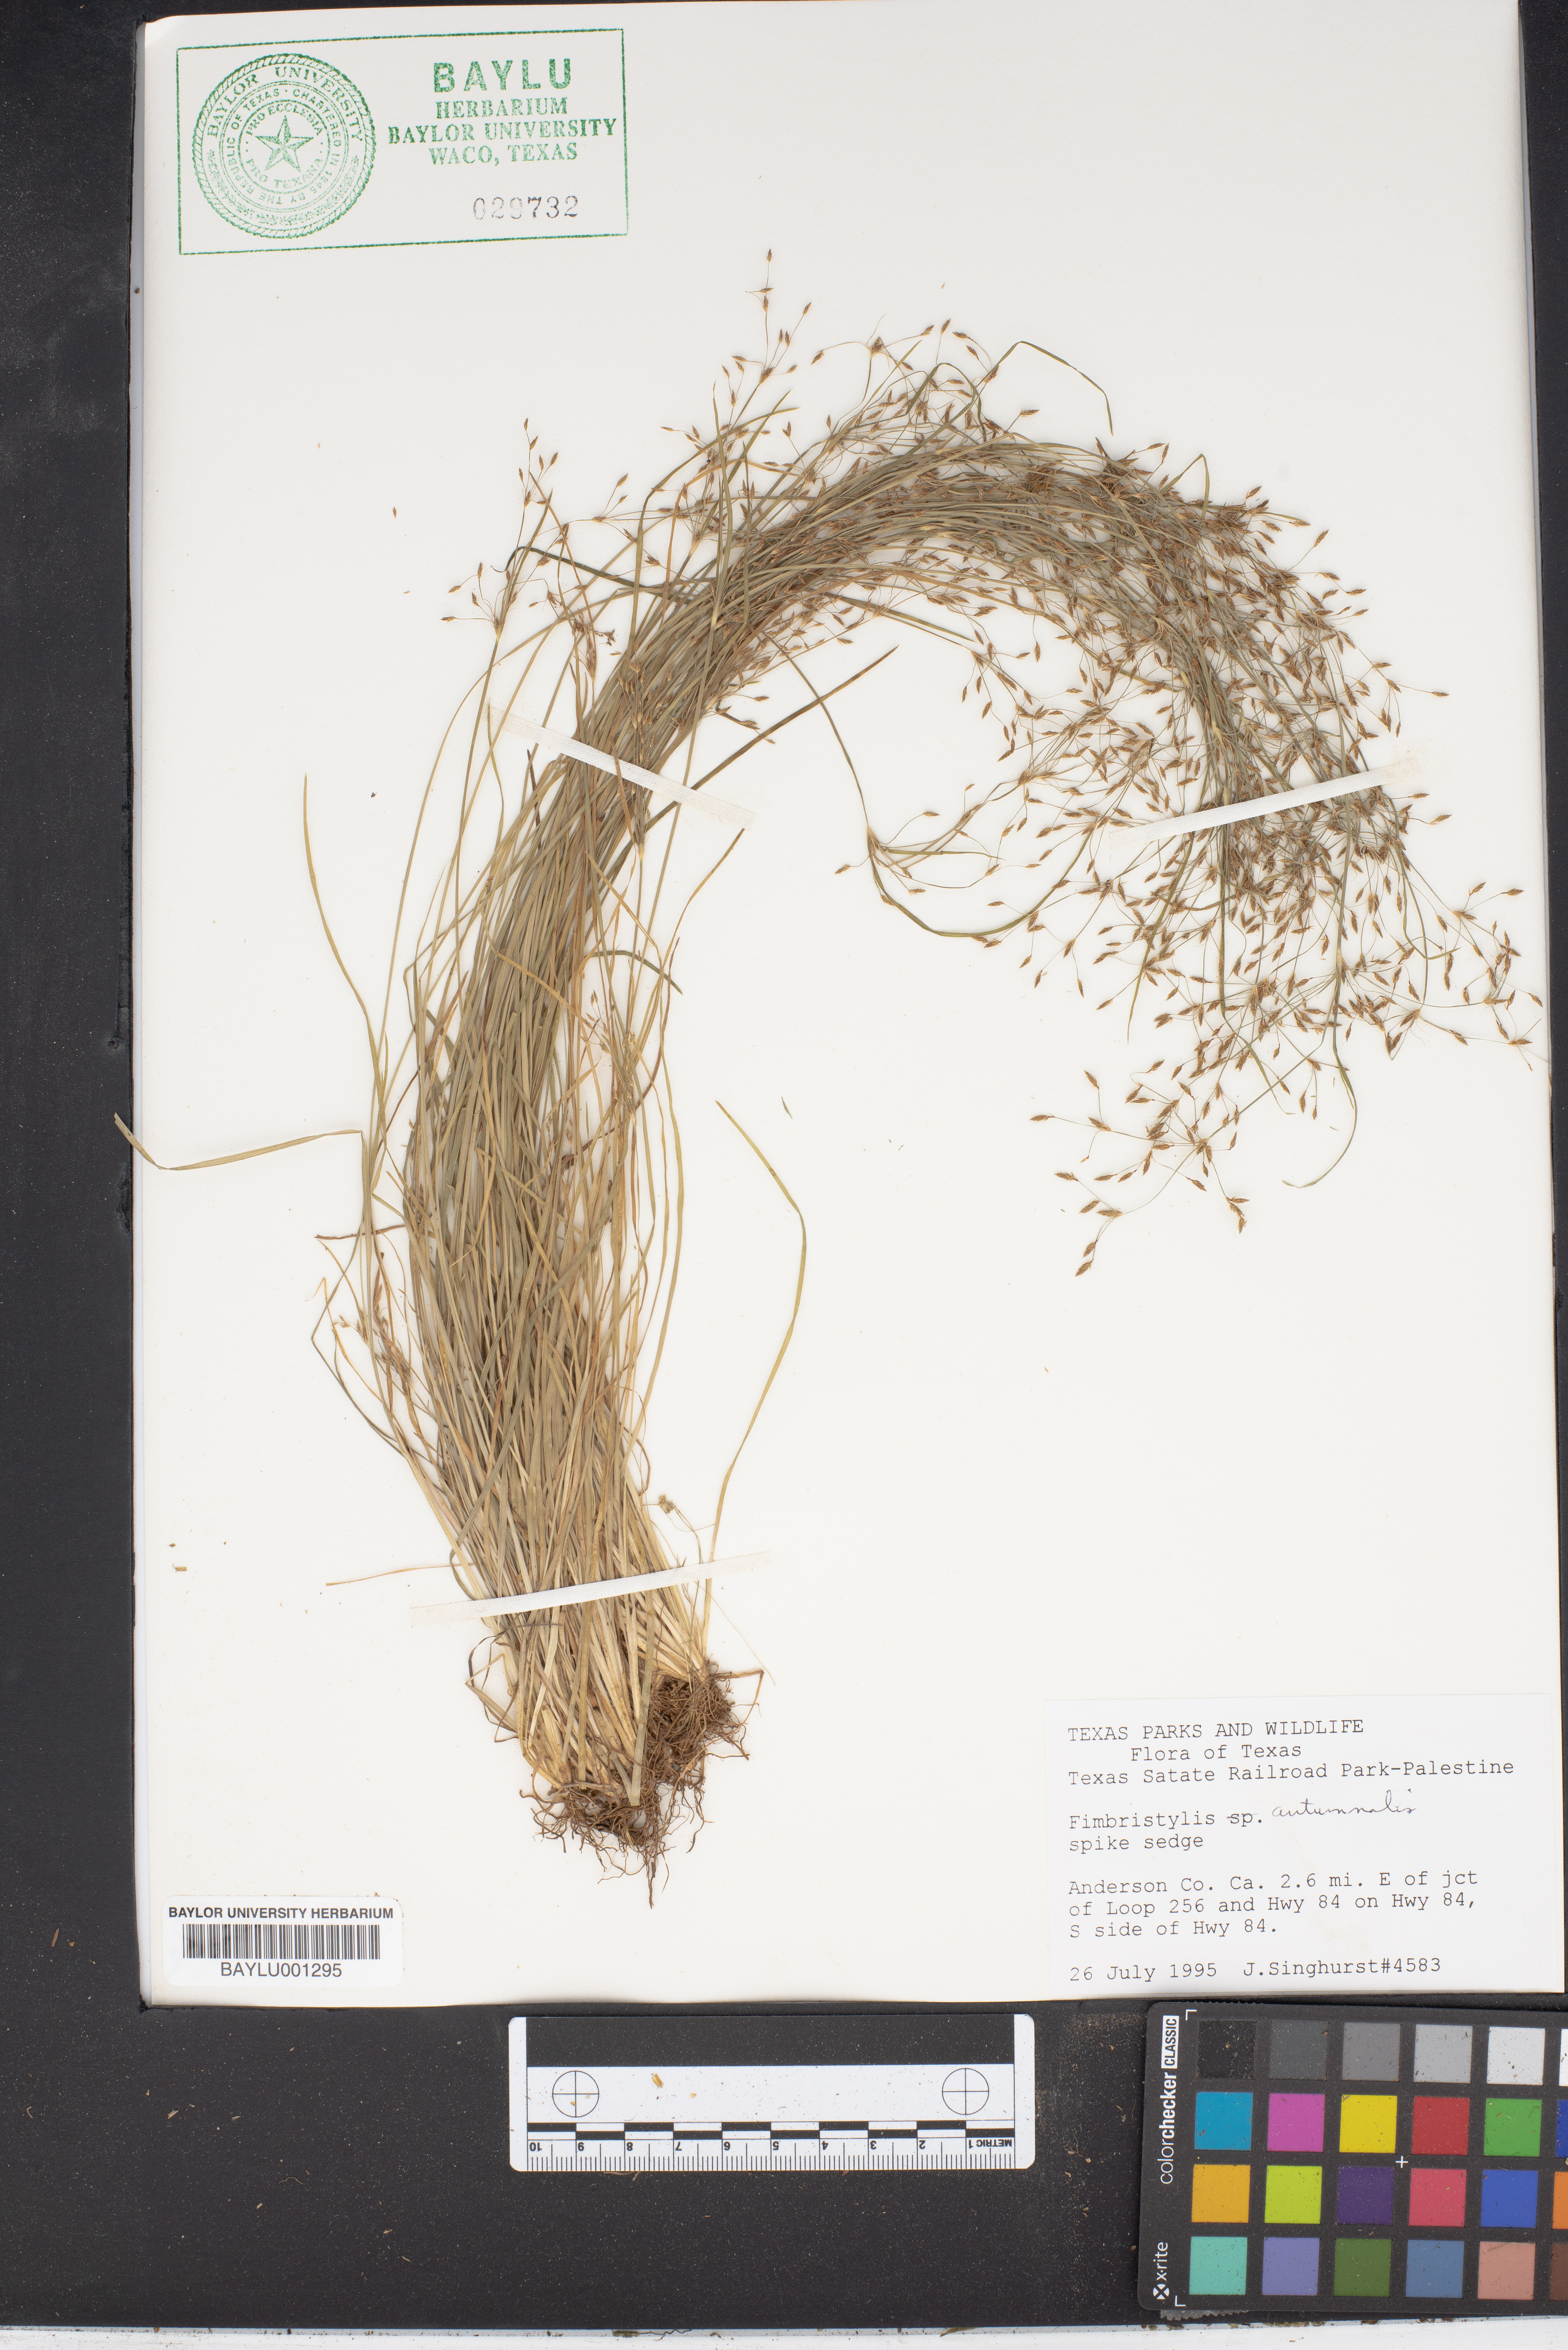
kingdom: Plantae
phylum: Tracheophyta
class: Liliopsida
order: Poales
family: Cyperaceae
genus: Fimbristylis
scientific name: Fimbristylis autumnalis
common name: Slender fimbristylis
